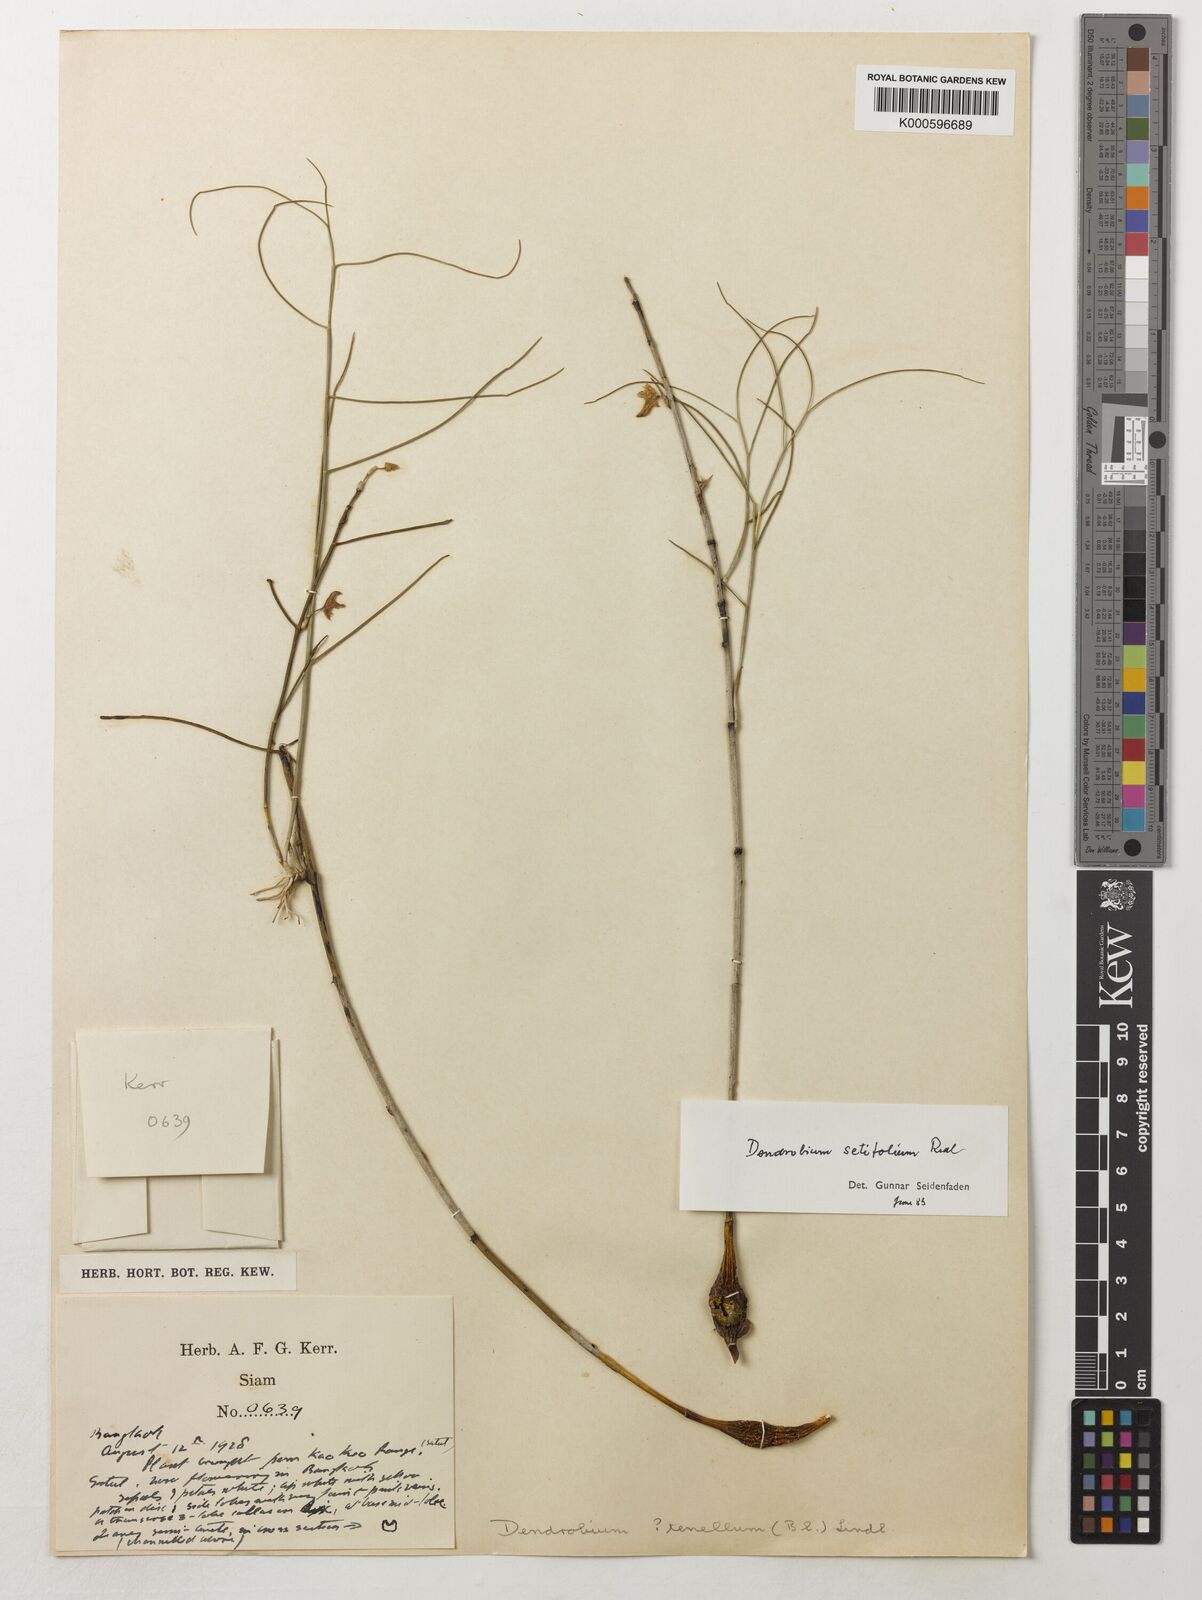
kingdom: Plantae
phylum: Tracheophyta
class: Liliopsida
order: Asparagales
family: Orchidaceae
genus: Dendrobium
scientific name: Dendrobium setifolium
